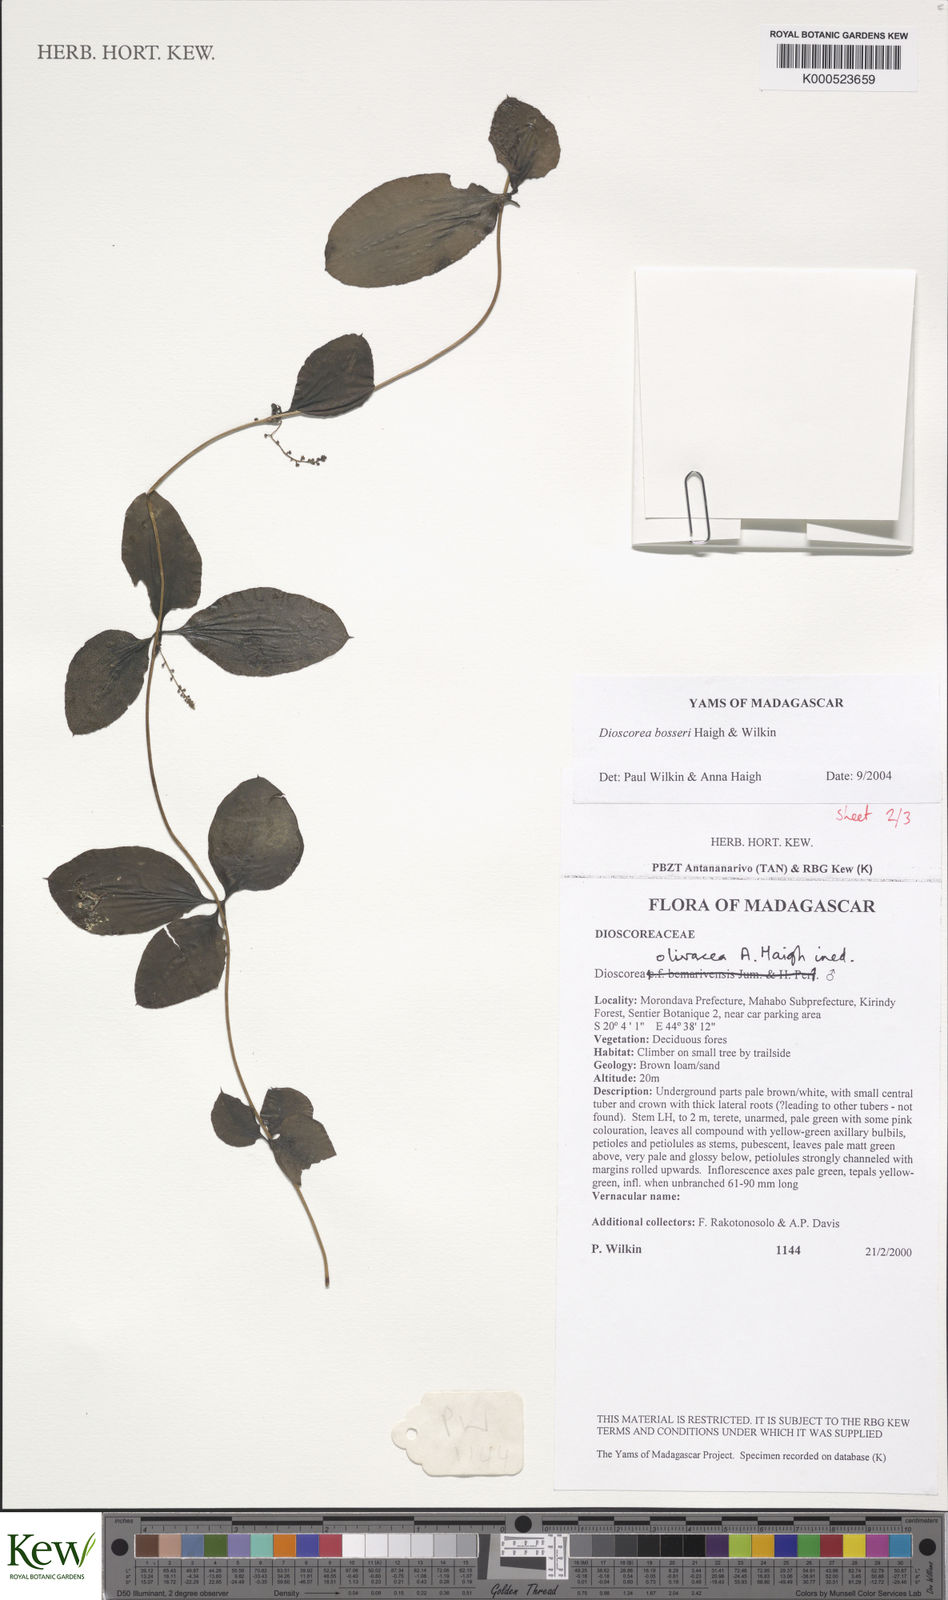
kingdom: Plantae
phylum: Tracheophyta
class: Liliopsida
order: Dioscoreales
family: Dioscoreaceae
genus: Dioscorea
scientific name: Dioscorea bosseri
